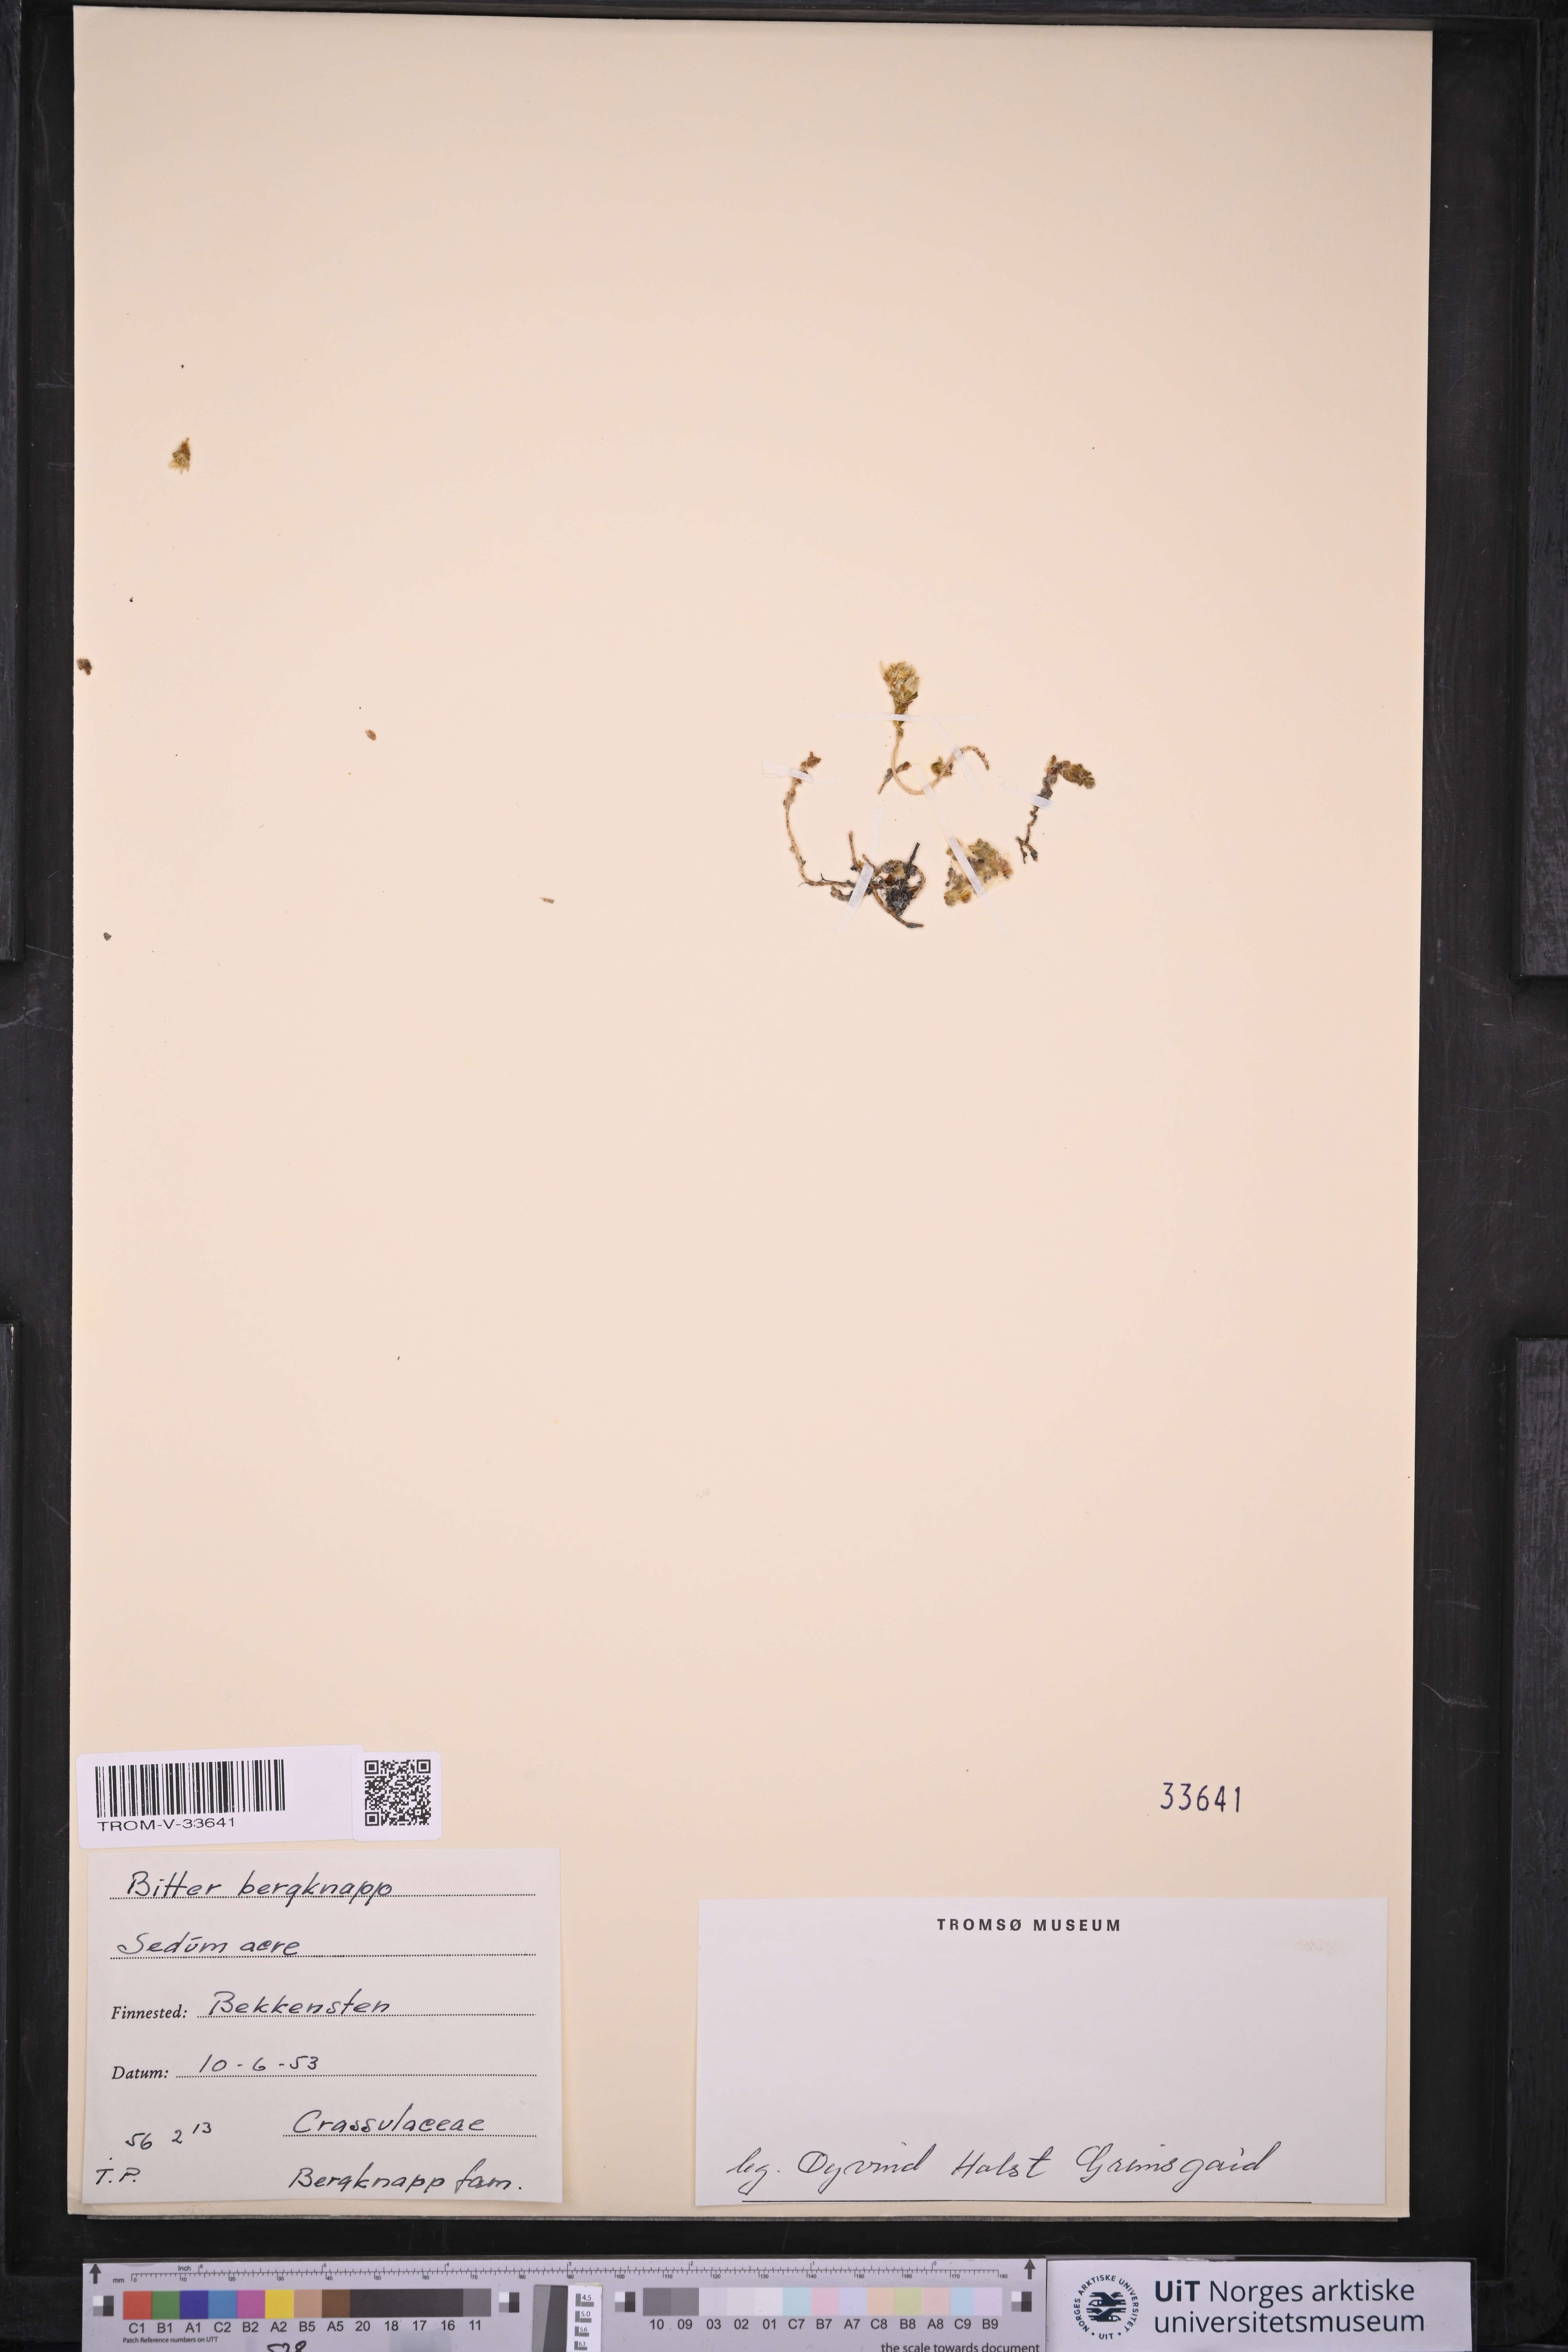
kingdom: Plantae
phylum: Tracheophyta
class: Magnoliopsida
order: Saxifragales
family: Crassulaceae
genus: Sedum
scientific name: Sedum acre
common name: Biting stonecrop
